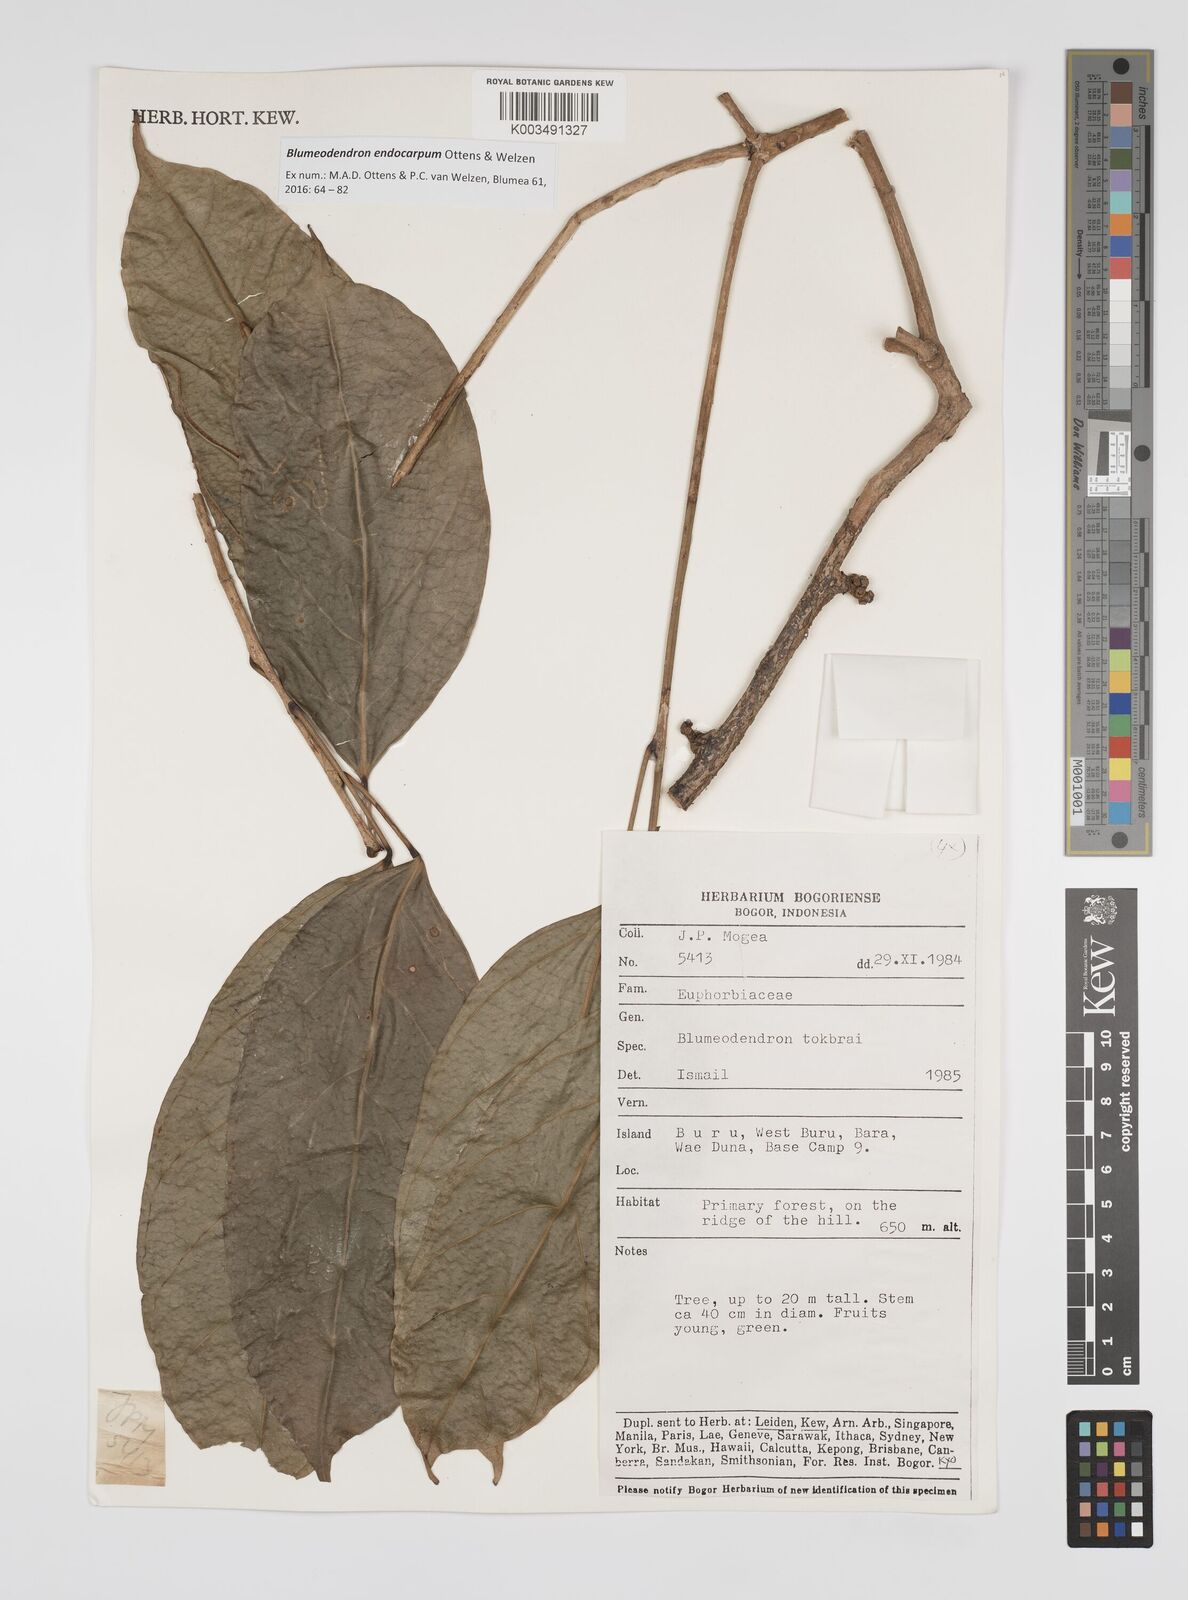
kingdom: Plantae
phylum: Tracheophyta
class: Magnoliopsida
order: Malpighiales
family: Euphorbiaceae
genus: Blumeodendron
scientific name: Blumeodendron endocarpum
